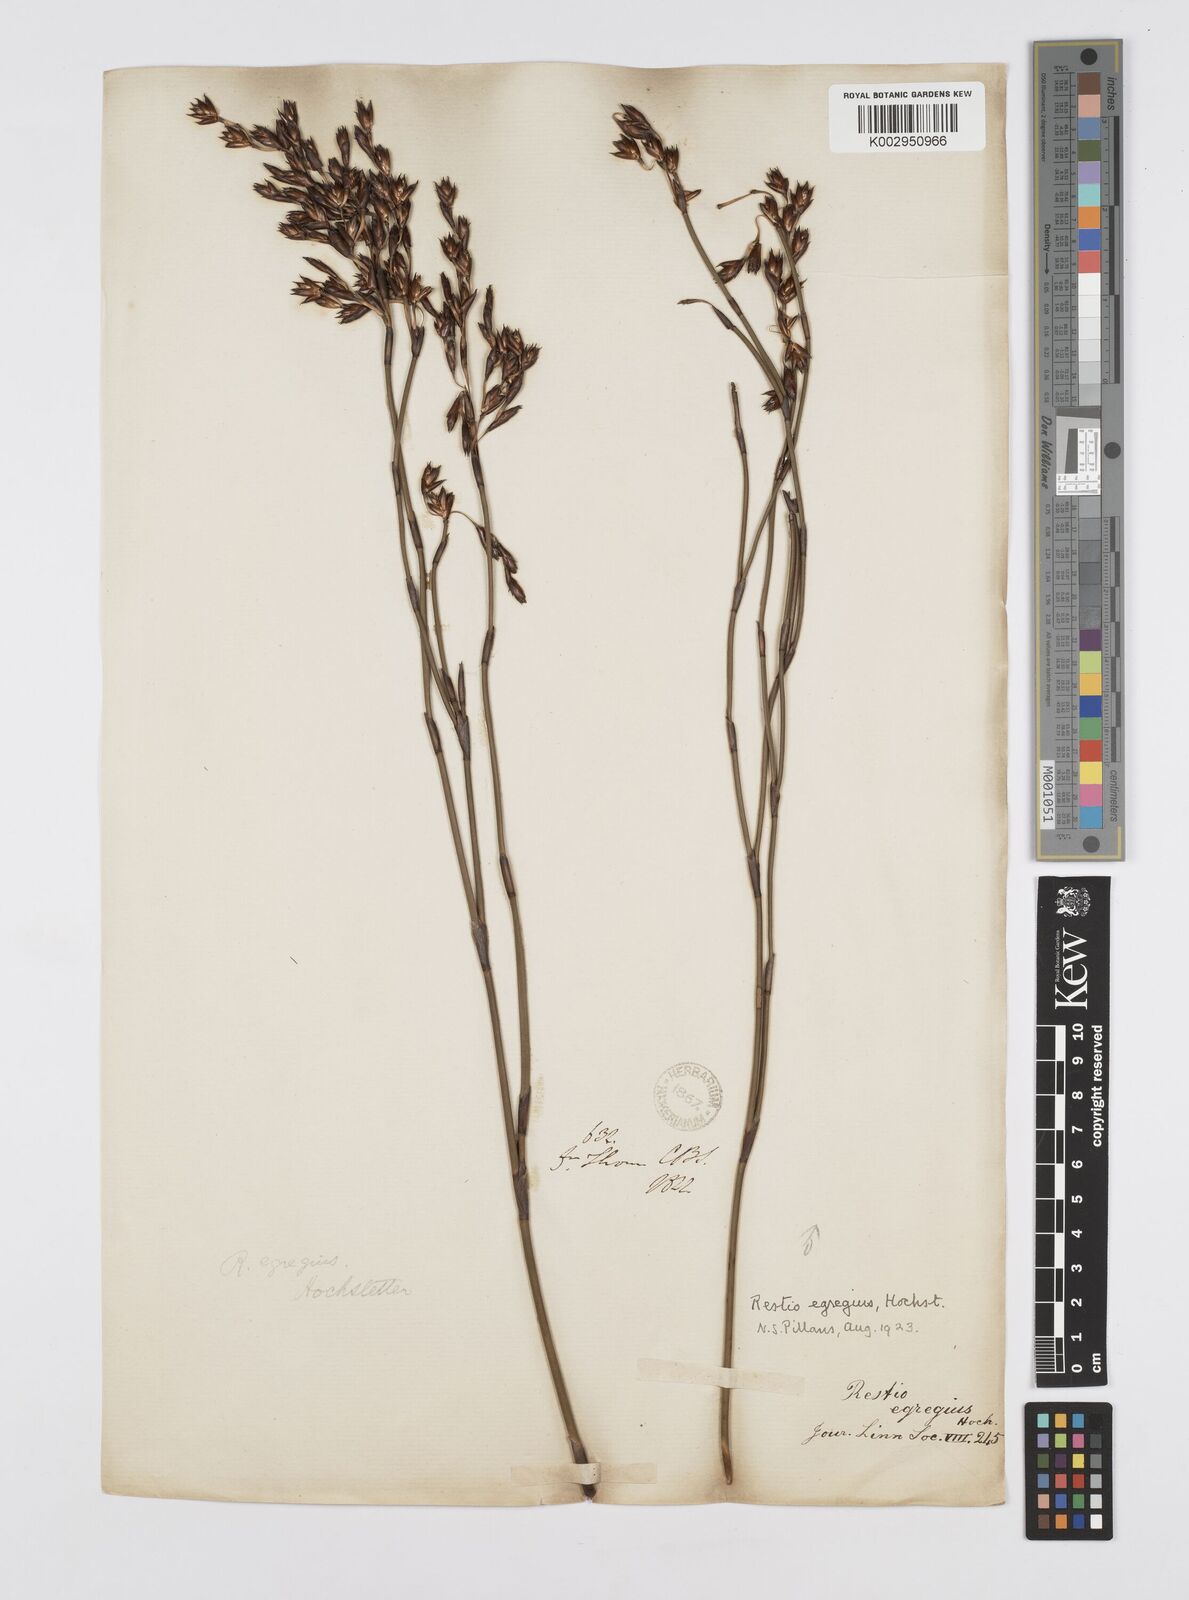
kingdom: Plantae
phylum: Tracheophyta
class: Liliopsida
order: Poales
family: Restionaceae
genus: Restio
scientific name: Restio egregius
